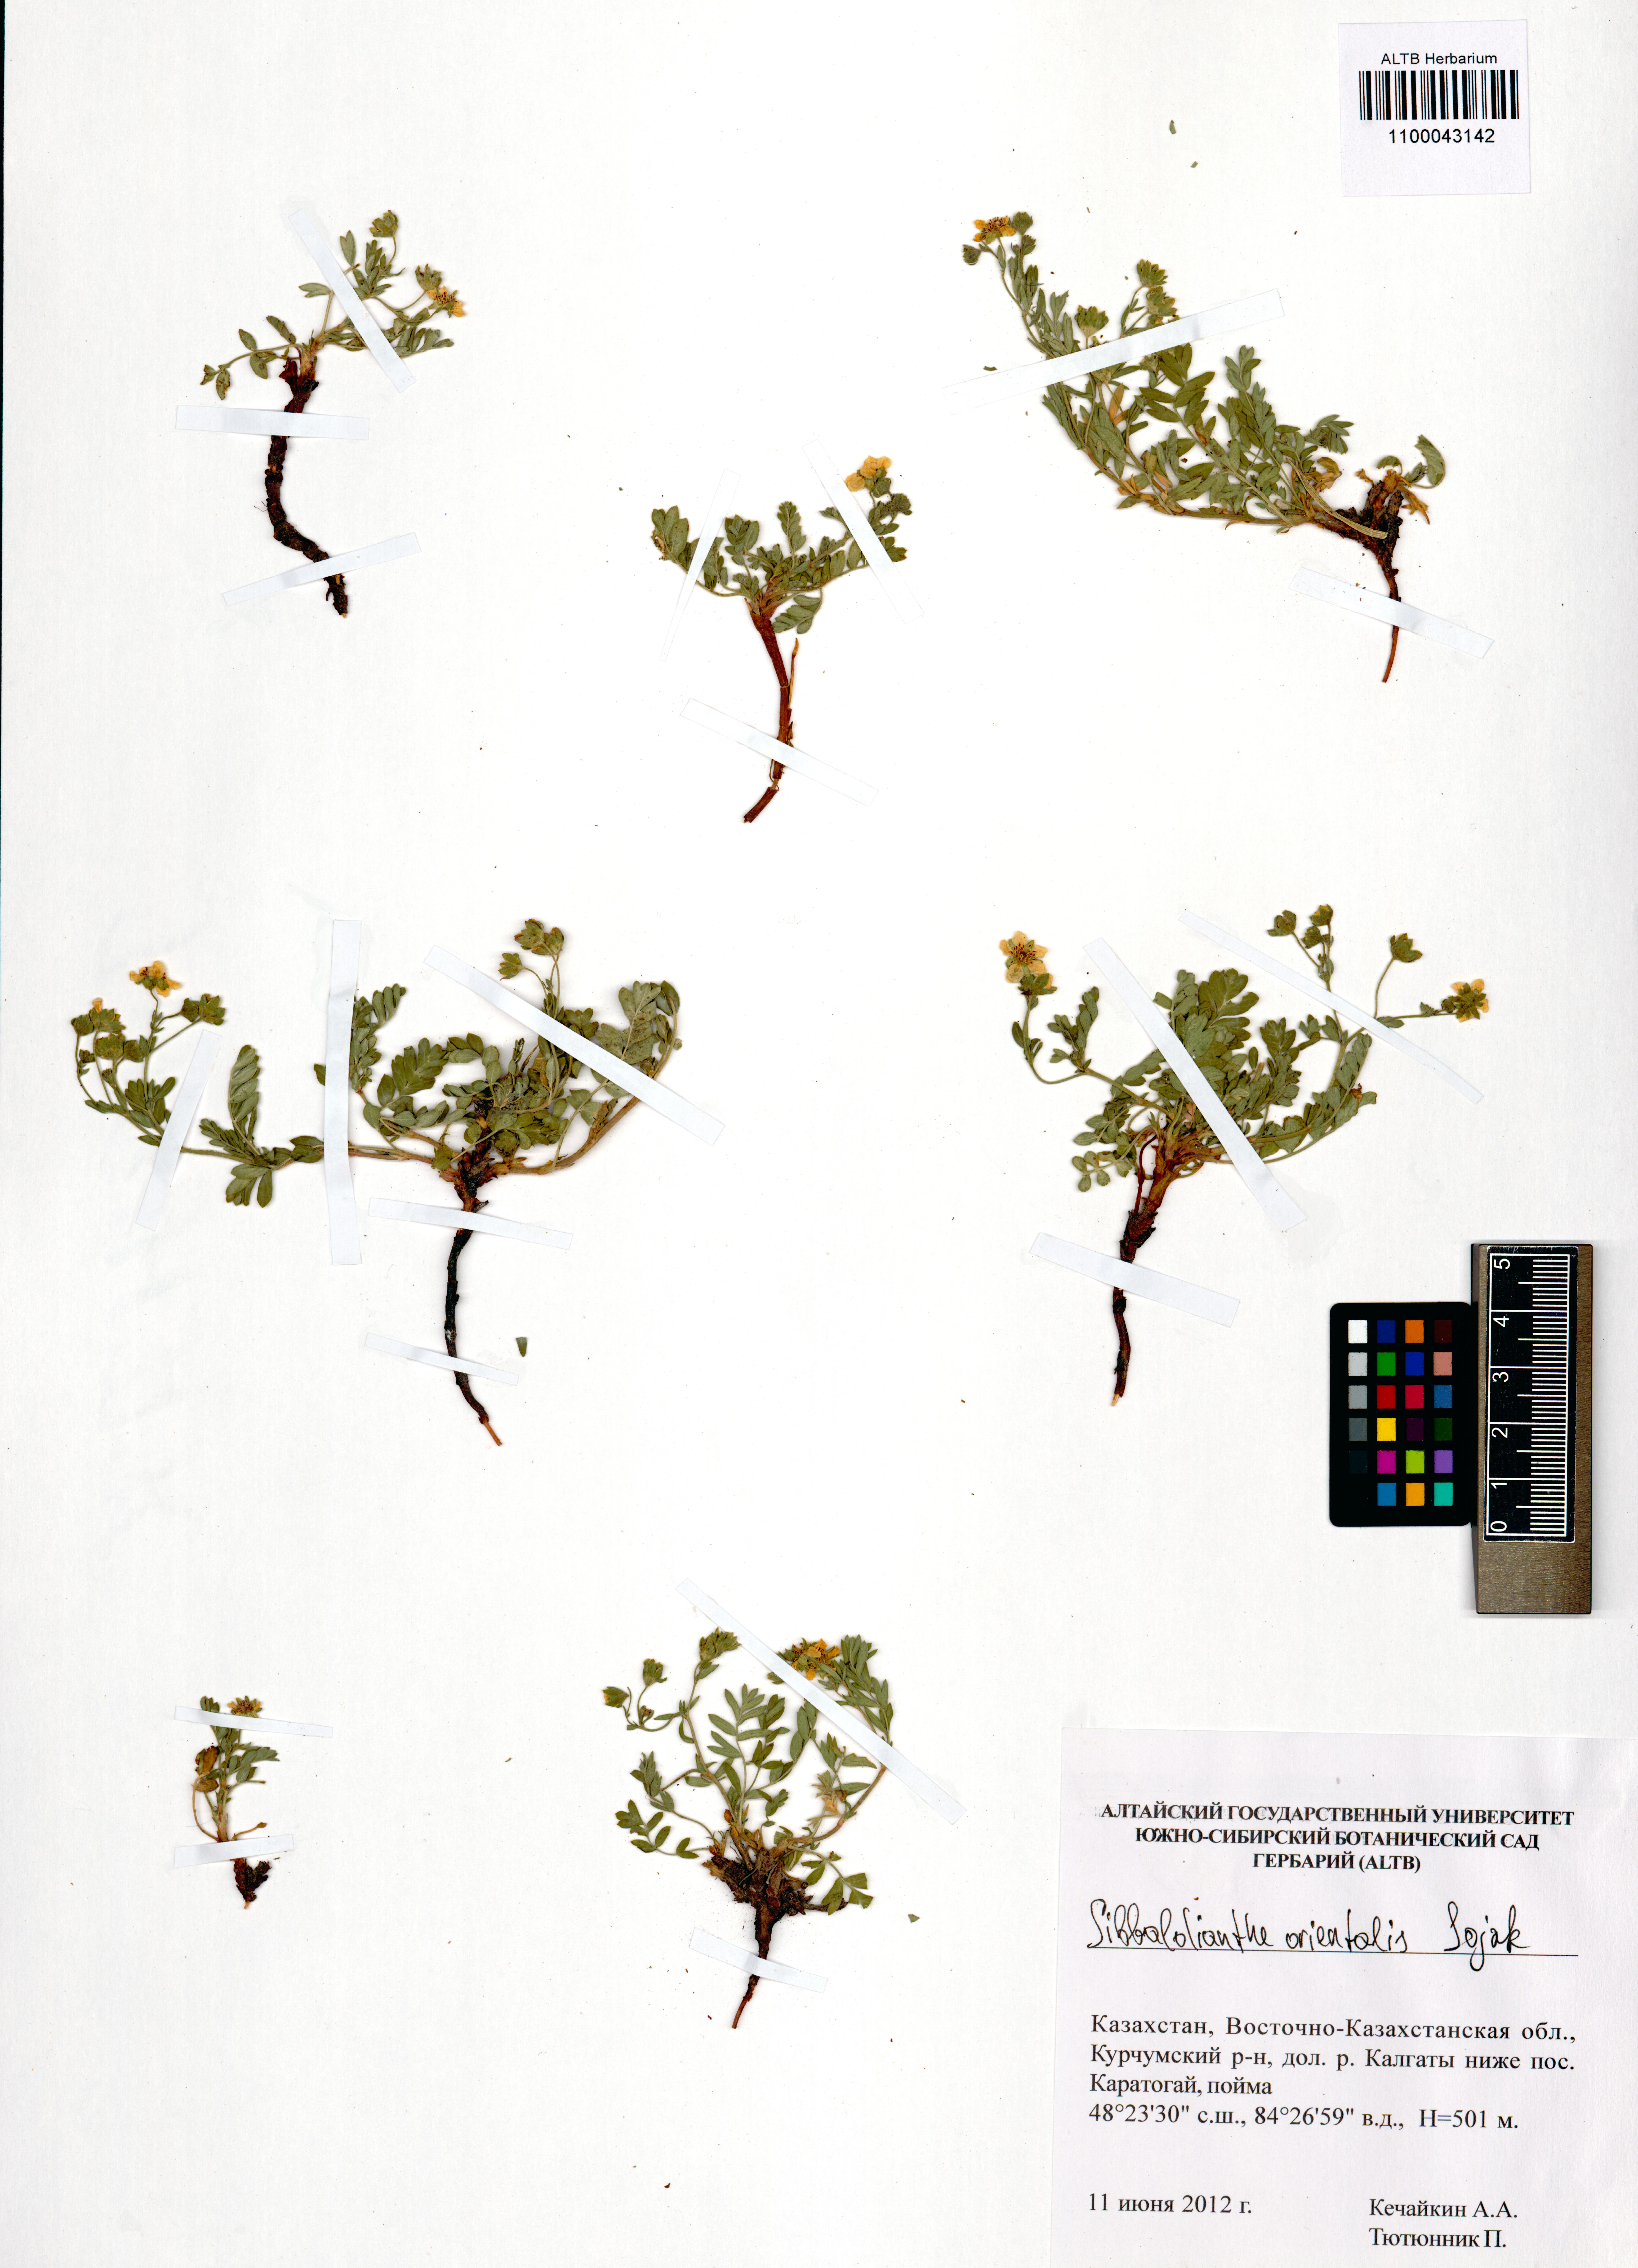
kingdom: Plantae
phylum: Tracheophyta
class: Magnoliopsida
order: Rosales
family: Rosaceae
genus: Sibbaldianthe
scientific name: Sibbaldianthe orientalis
